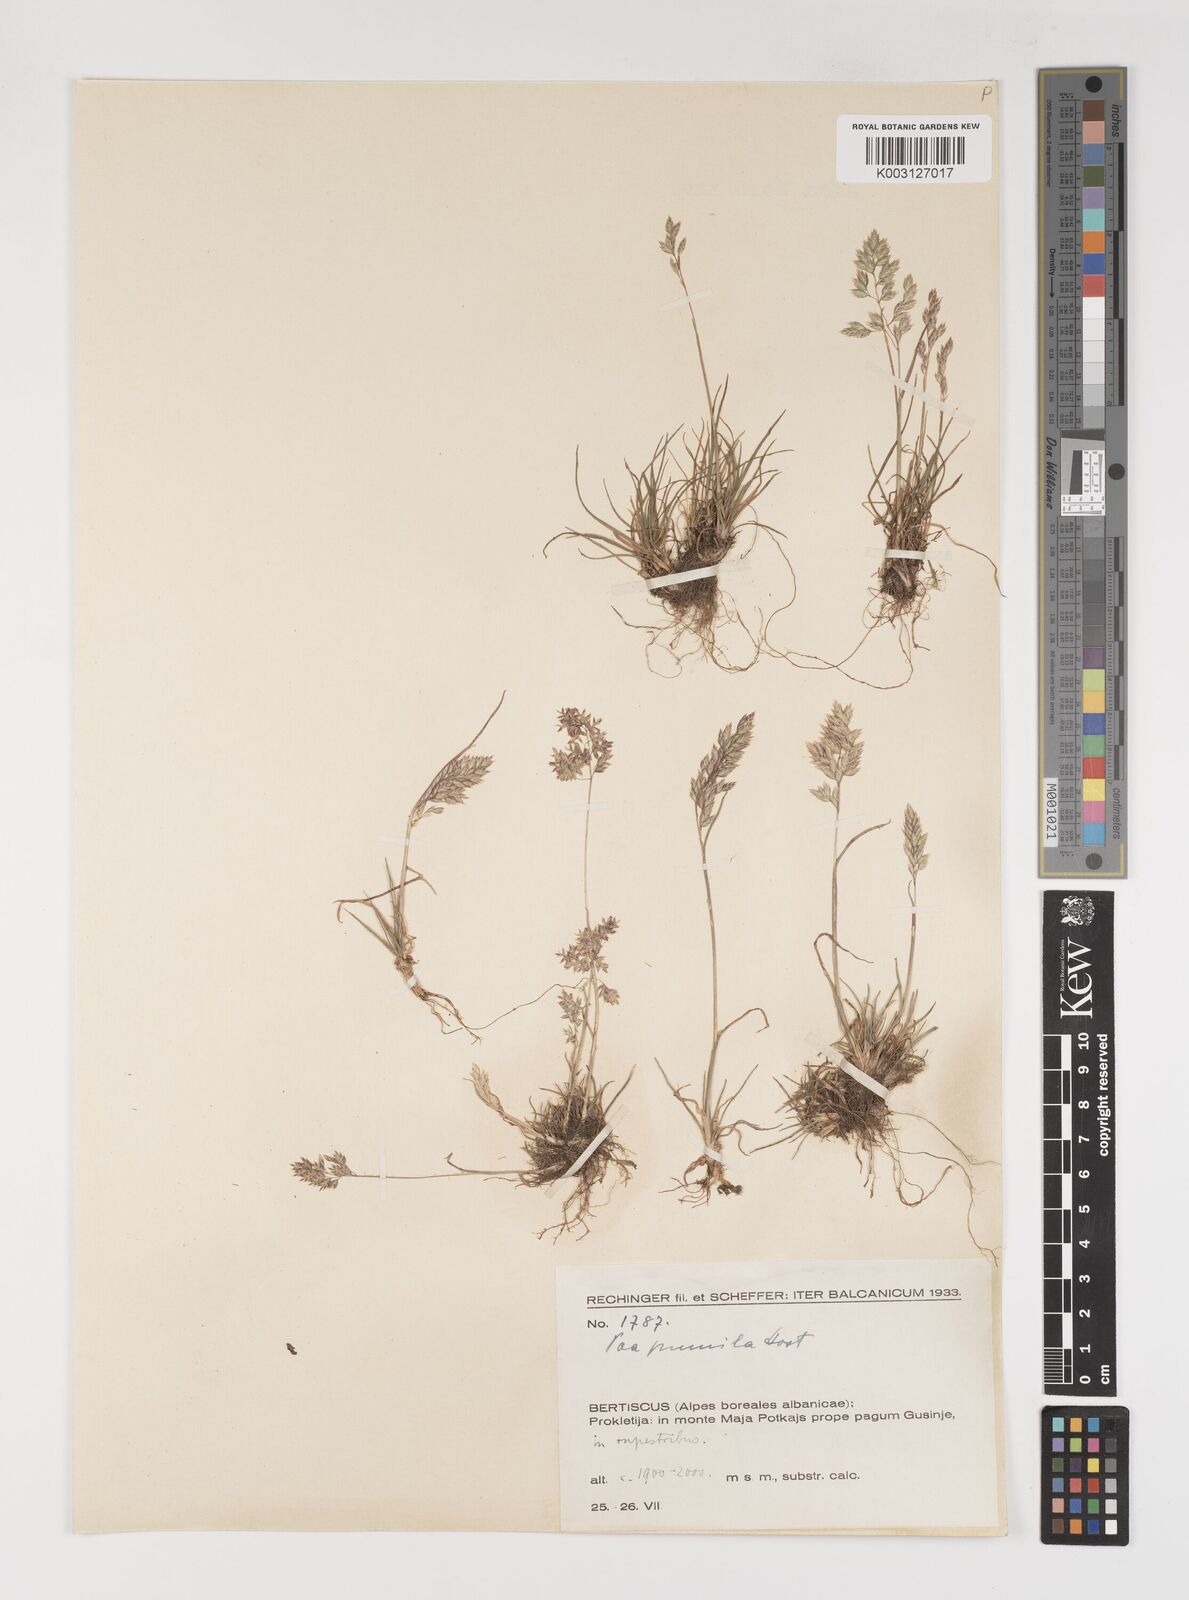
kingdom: Plantae
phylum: Tracheophyta
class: Liliopsida
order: Poales
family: Poaceae
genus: Poa
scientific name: Poa pumila
